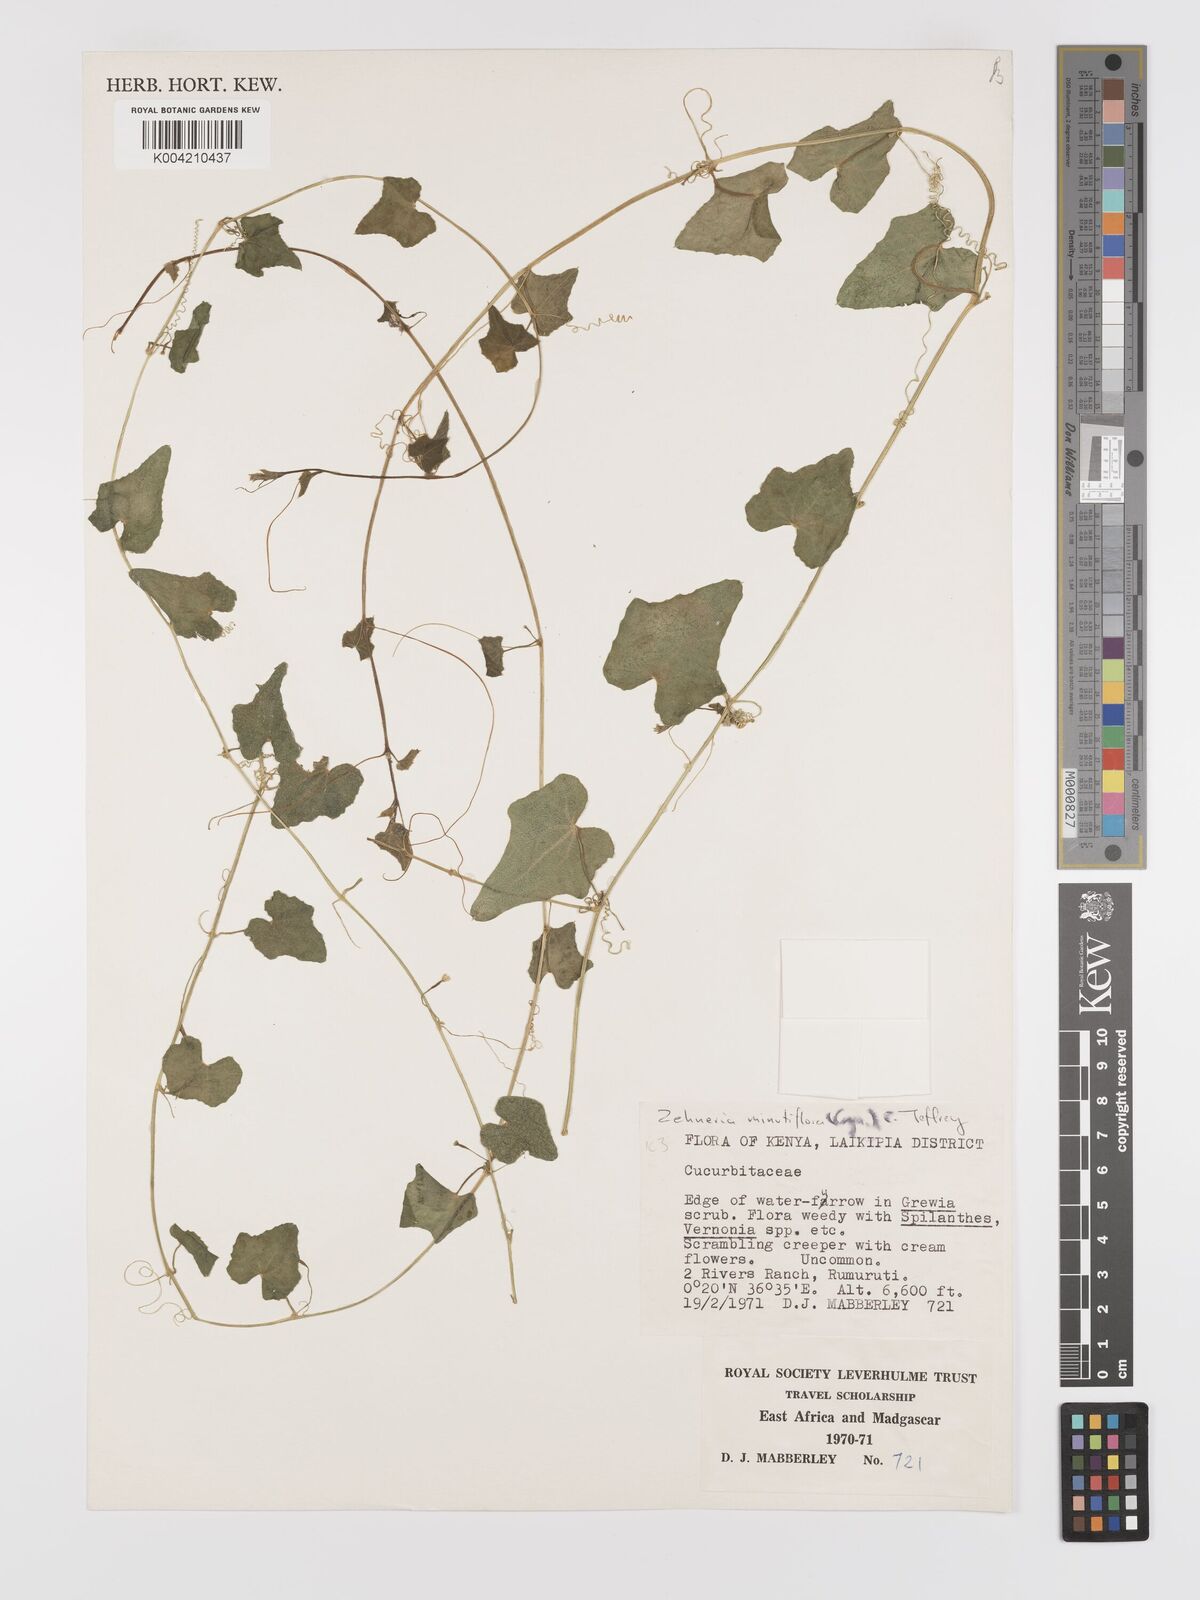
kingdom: Plantae
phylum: Tracheophyta
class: Magnoliopsida
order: Cucurbitales
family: Cucurbitaceae
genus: Zehneria
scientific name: Zehneria minutiflora
